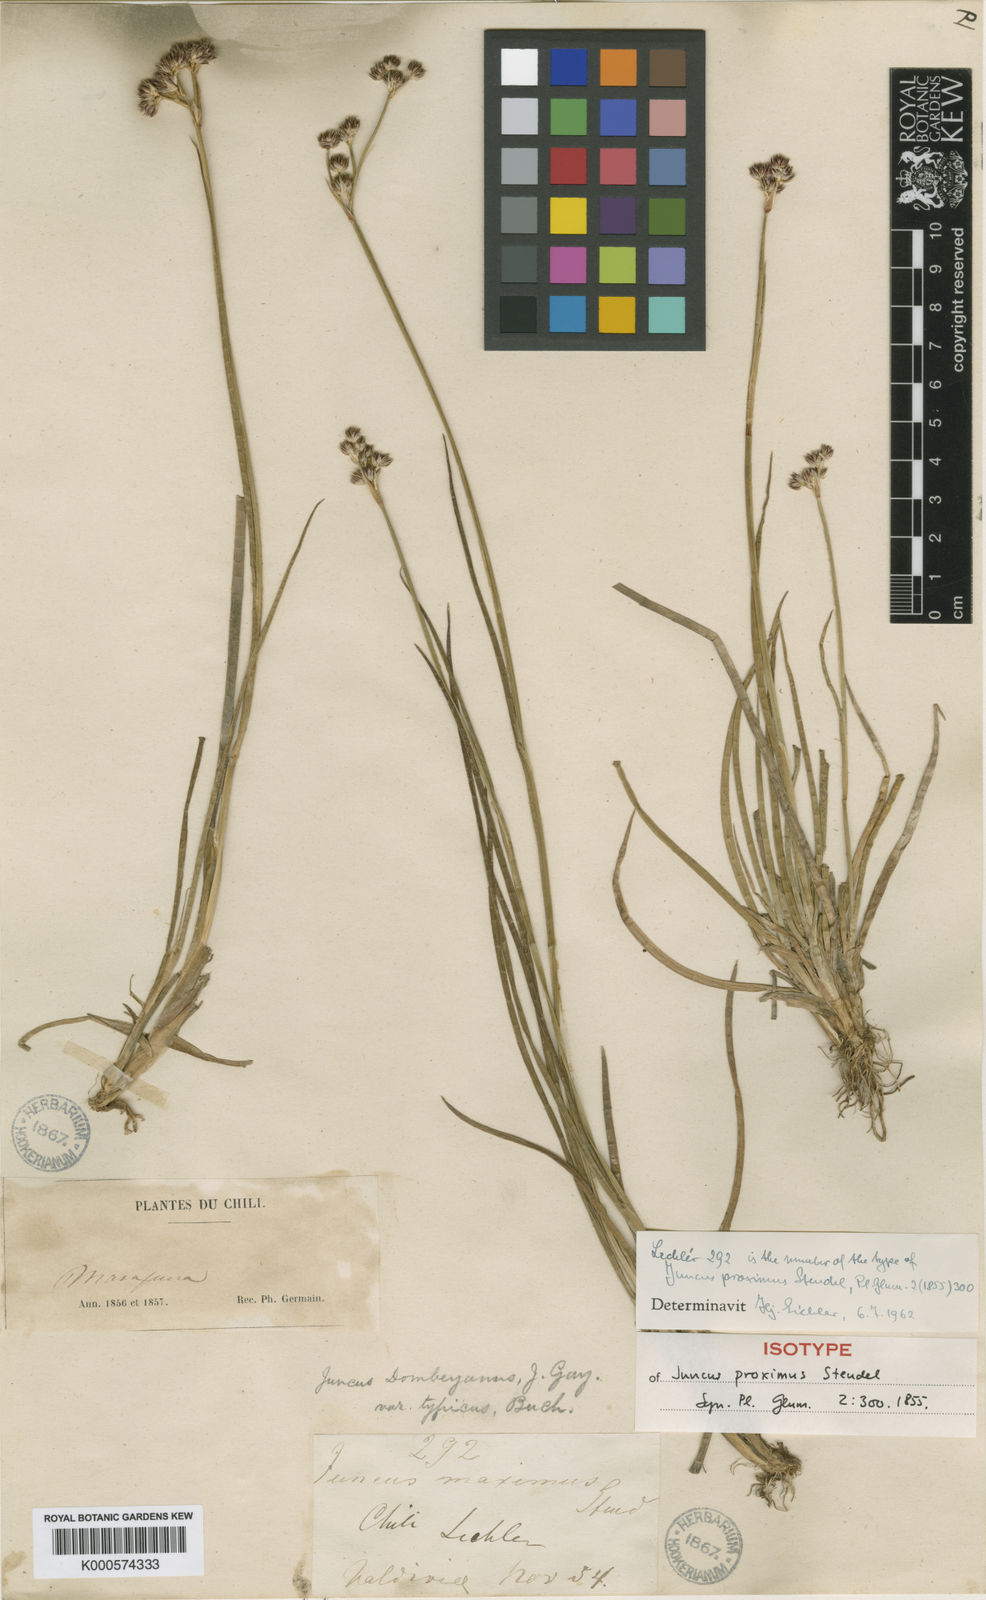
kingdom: Plantae
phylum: Tracheophyta
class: Liliopsida
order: Poales
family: Juncaceae
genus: Juncus
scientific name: Juncus microcephalus
